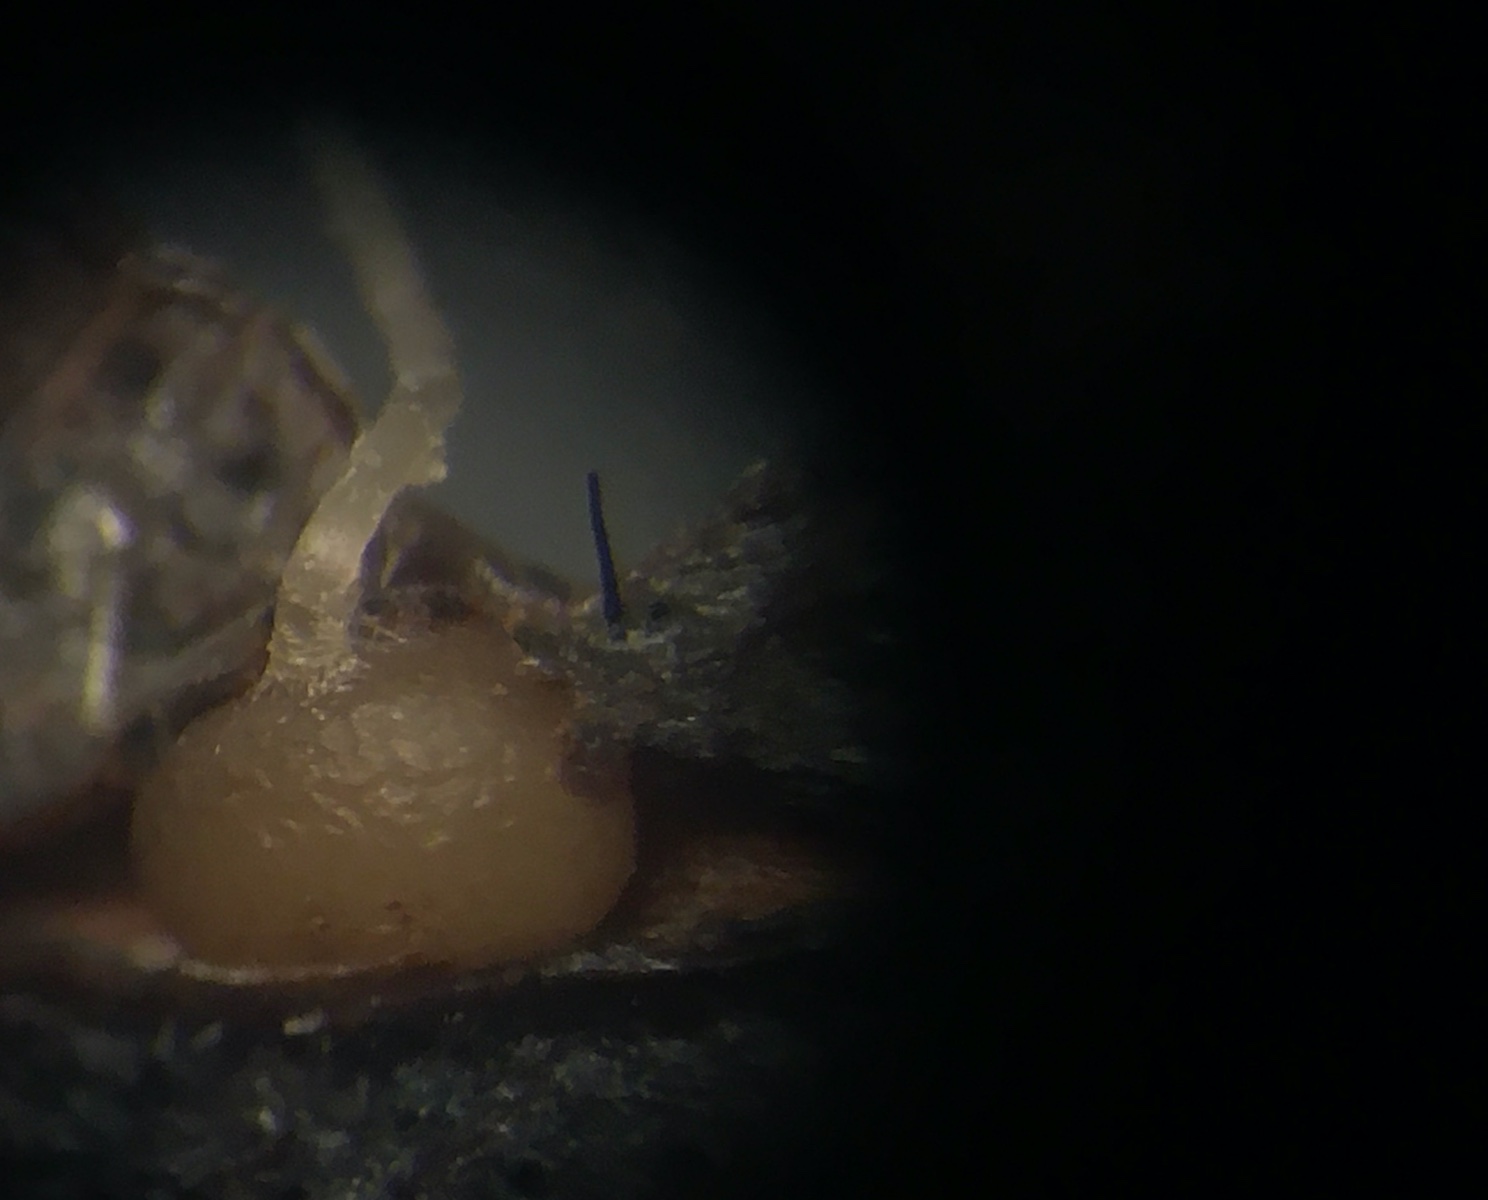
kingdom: Fungi
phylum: Basidiomycota
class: Agaricomycetes
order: Agaricales
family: Typhulaceae
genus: Typhula
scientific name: Typhula
